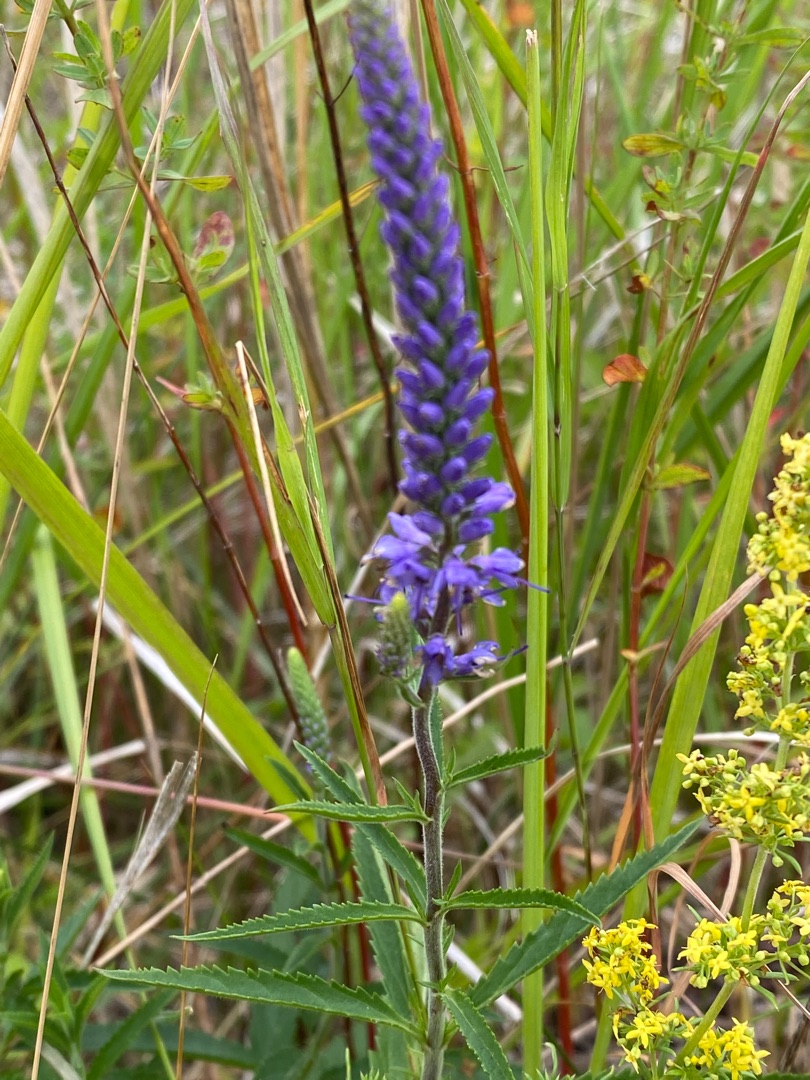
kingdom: Plantae
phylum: Tracheophyta
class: Magnoliopsida
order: Lamiales
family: Plantaginaceae
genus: Veronica
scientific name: Veronica longifolia
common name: Langbladet ærenpris
